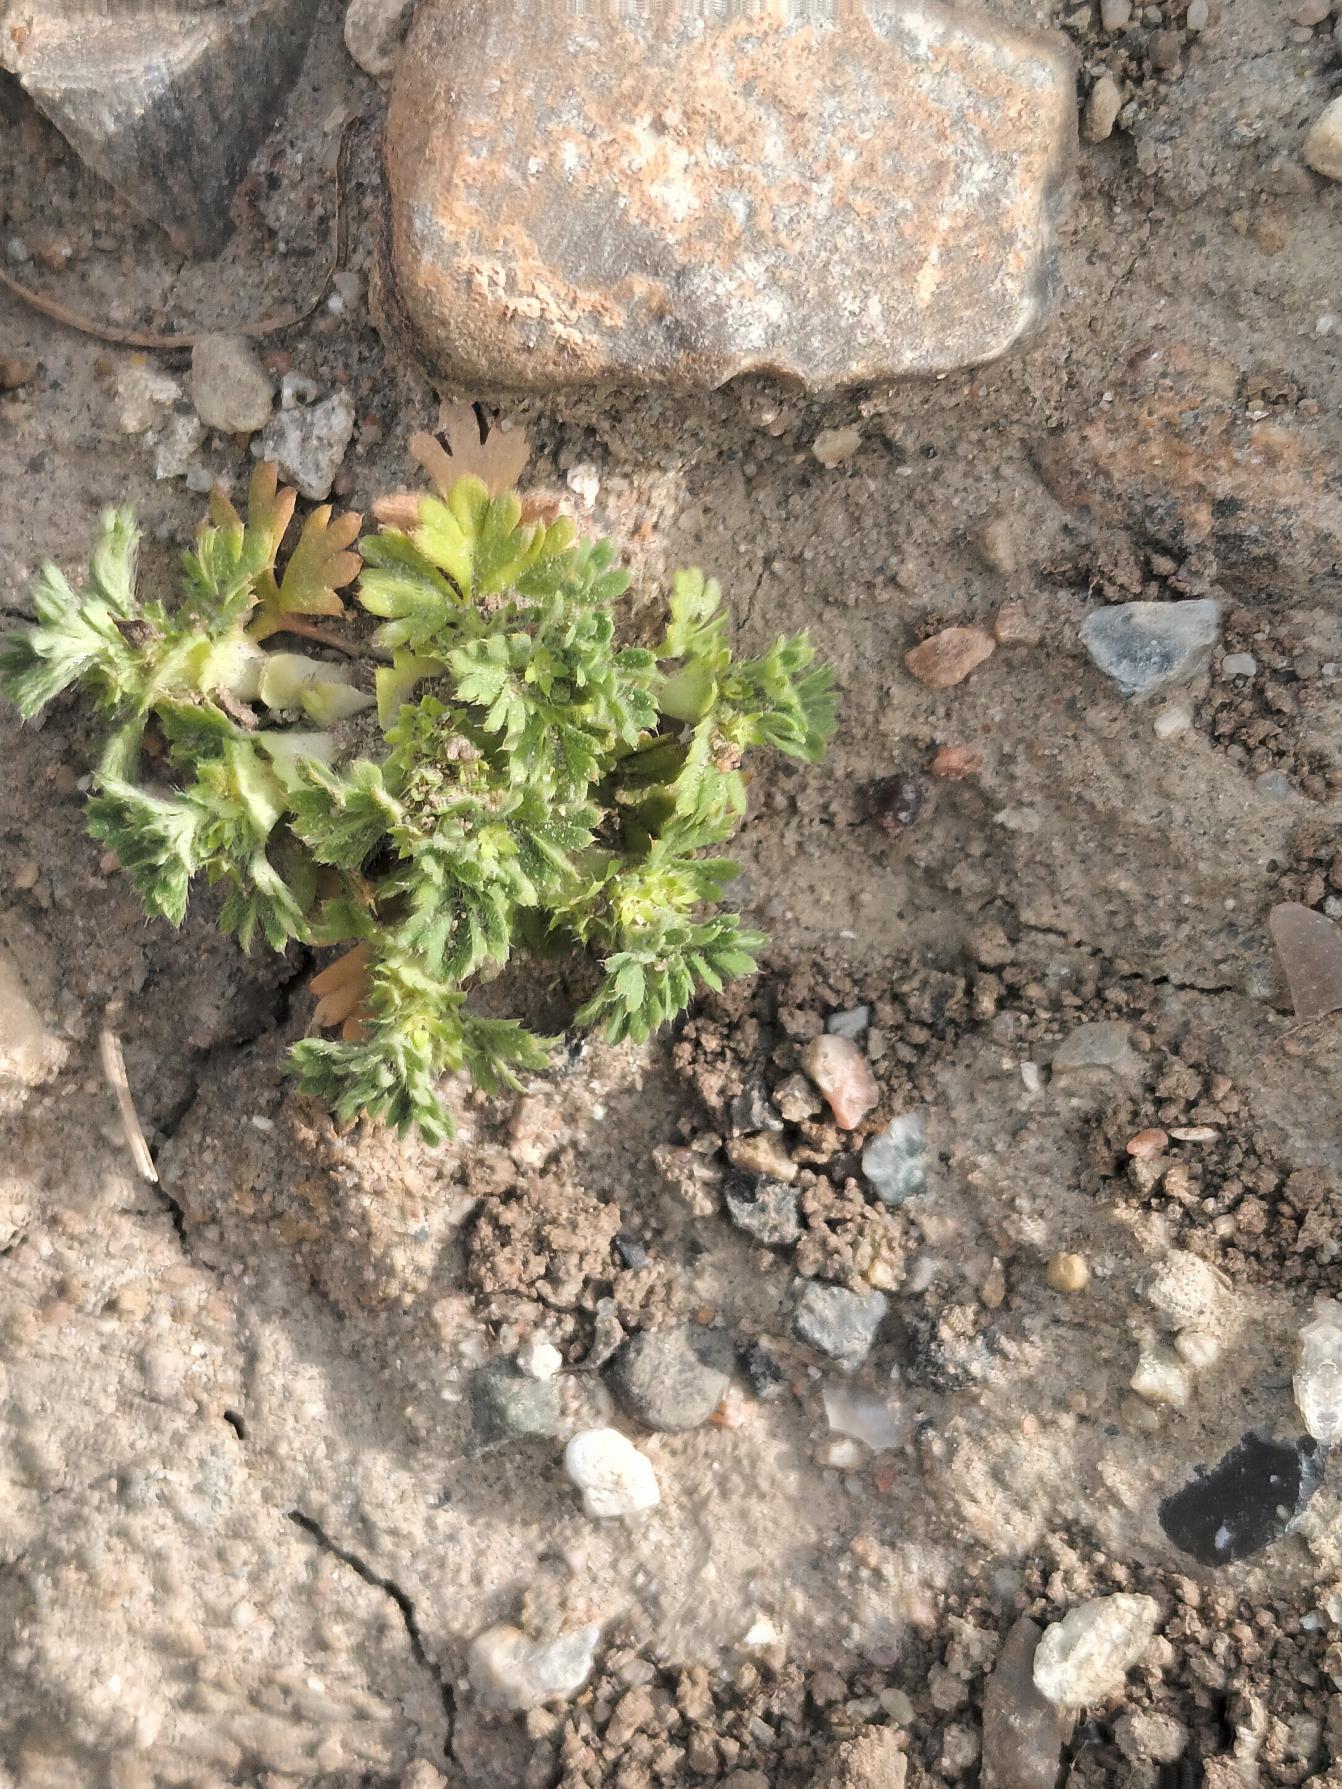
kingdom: Plantae
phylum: Tracheophyta
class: Magnoliopsida
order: Rosales
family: Rosaceae
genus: Aphanes
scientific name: Aphanes arvensis
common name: Dværgløvefod
